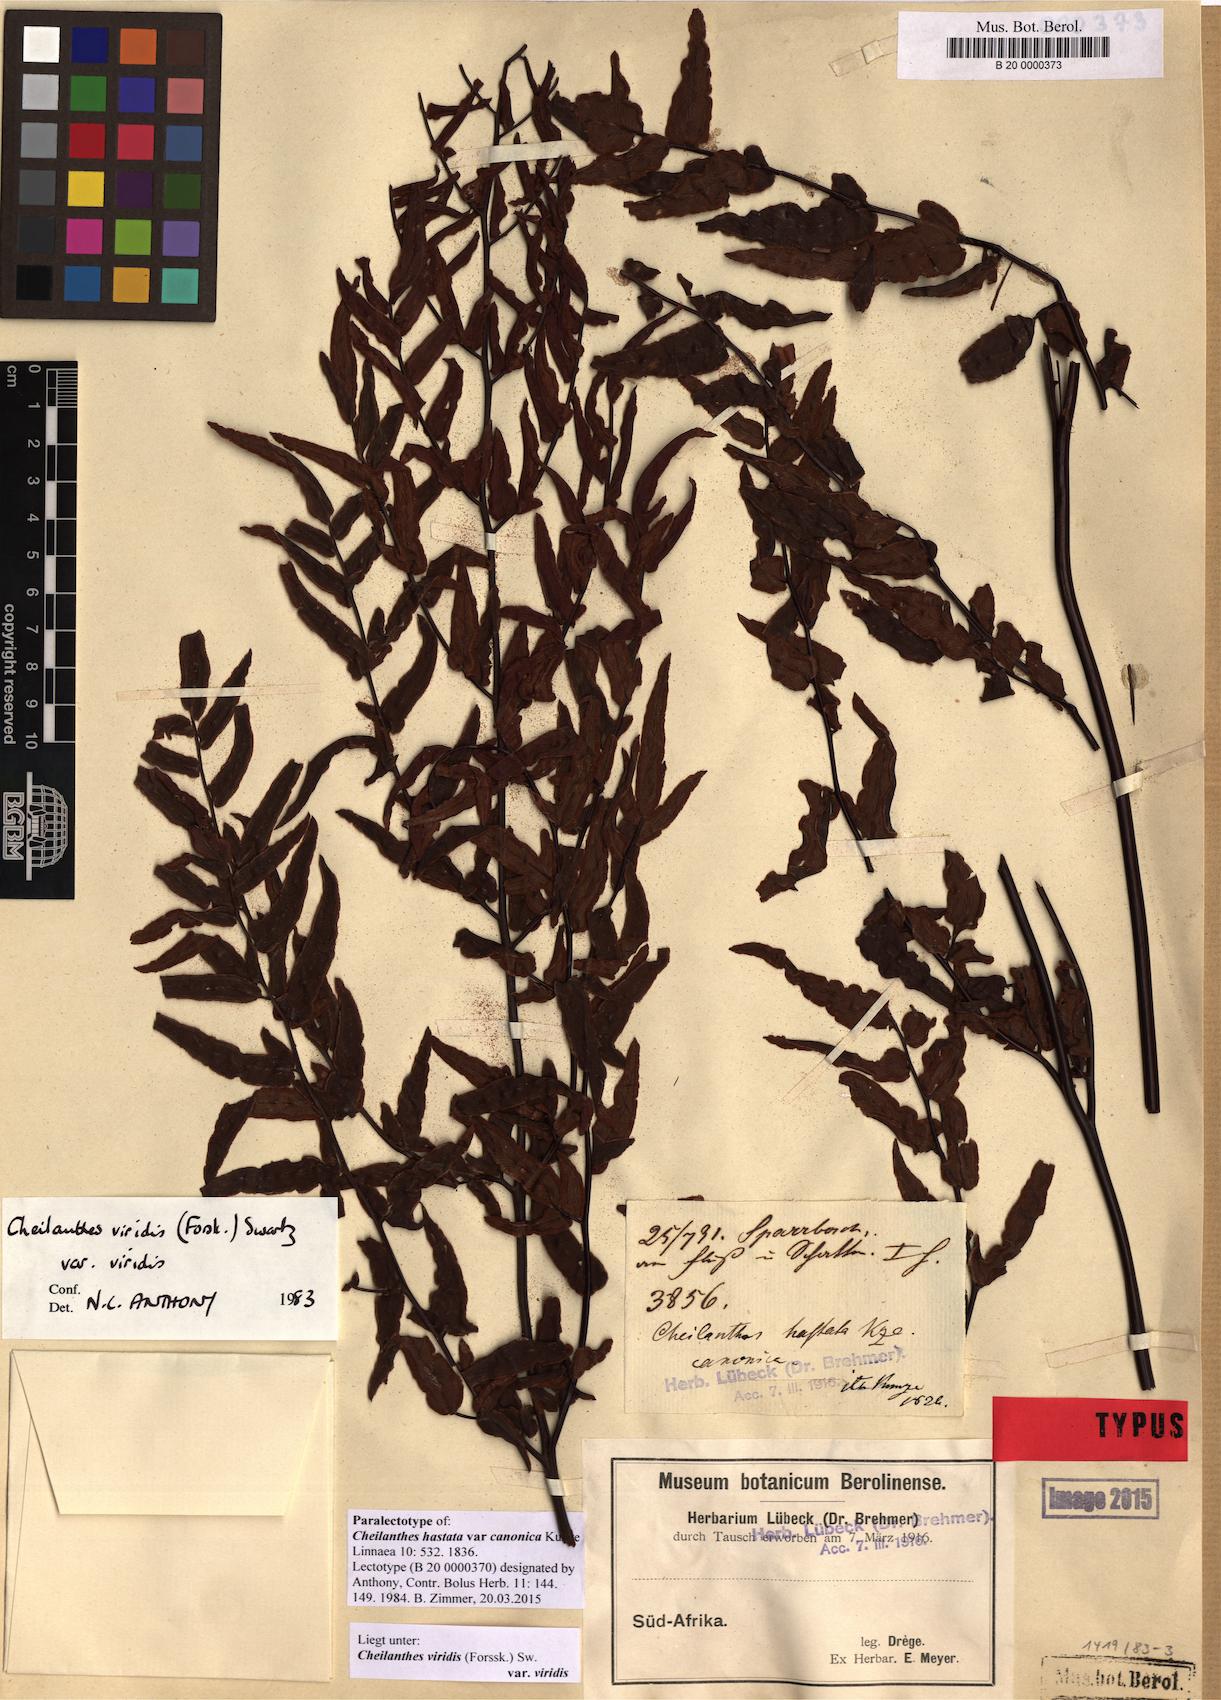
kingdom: Plantae
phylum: Tracheophyta
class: Polypodiopsida
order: Polypodiales
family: Pteridaceae
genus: Cheilanthes
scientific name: Cheilanthes viridis
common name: Green cliffbrake
